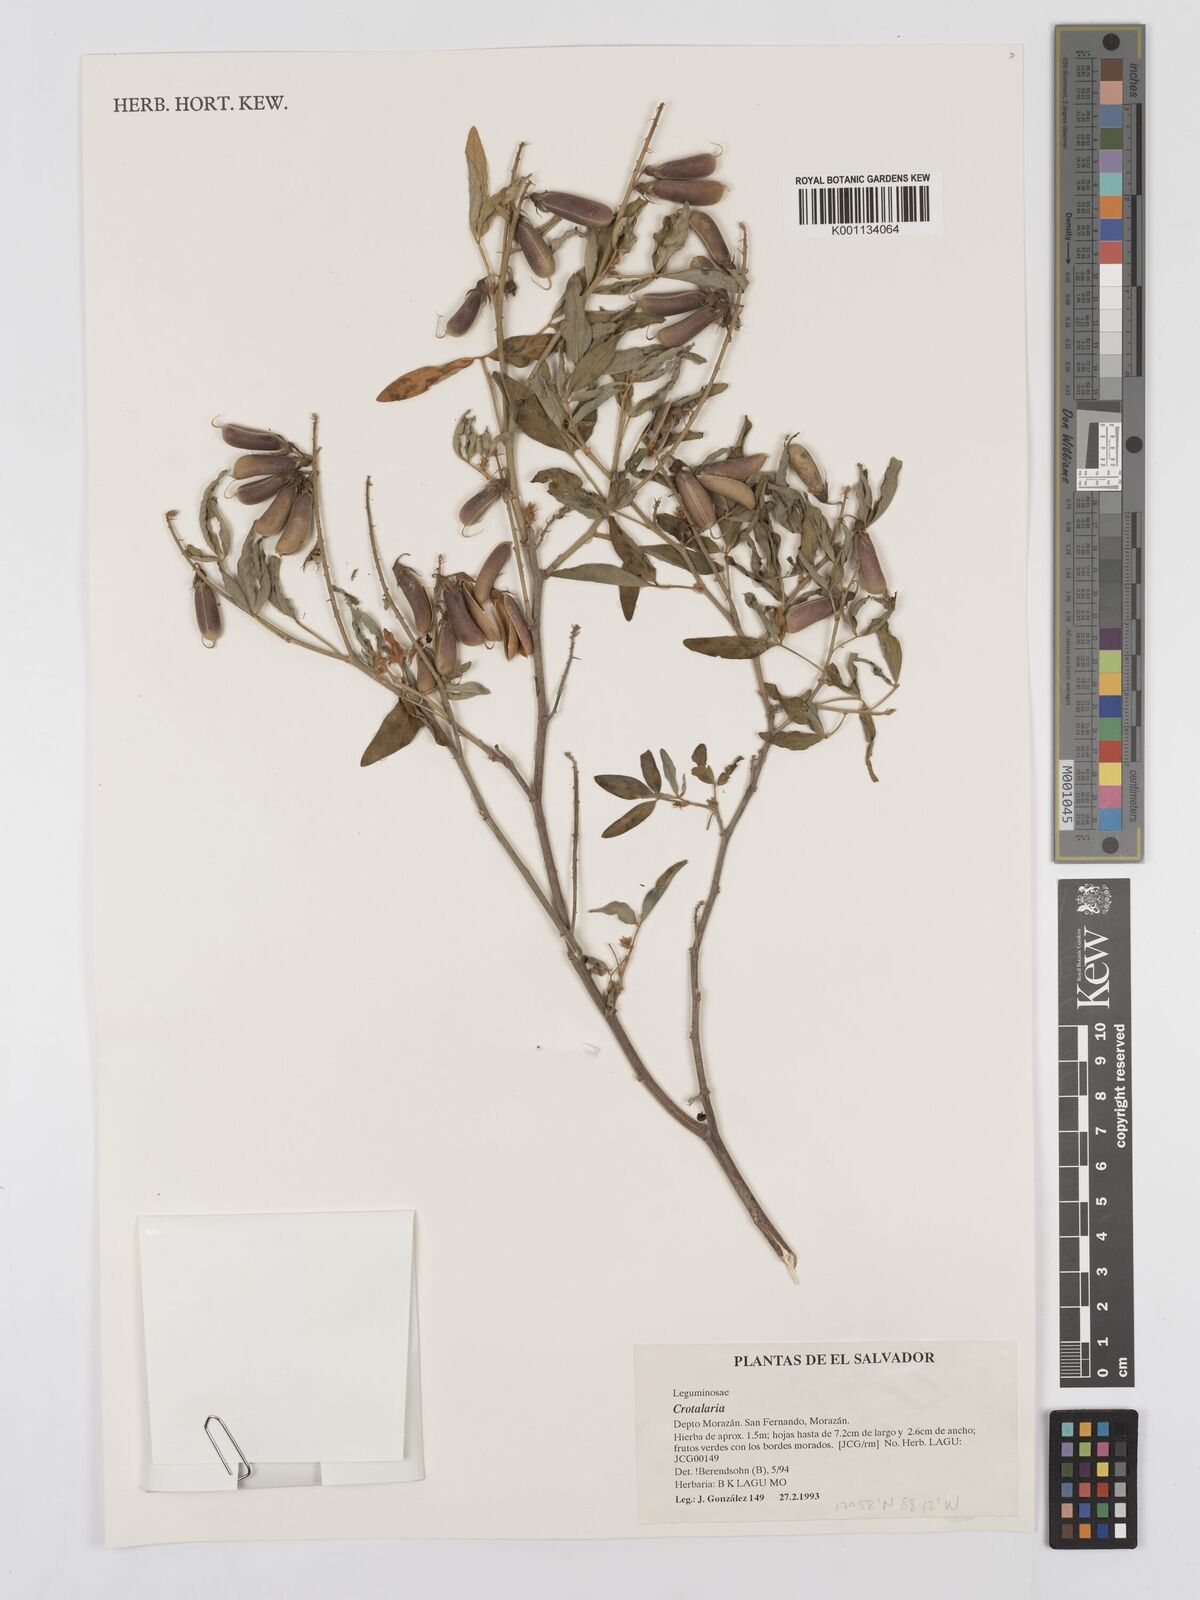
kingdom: Plantae
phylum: Tracheophyta
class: Magnoliopsida
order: Fabales
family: Fabaceae
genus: Crotalaria
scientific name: Crotalaria cajanifolia
